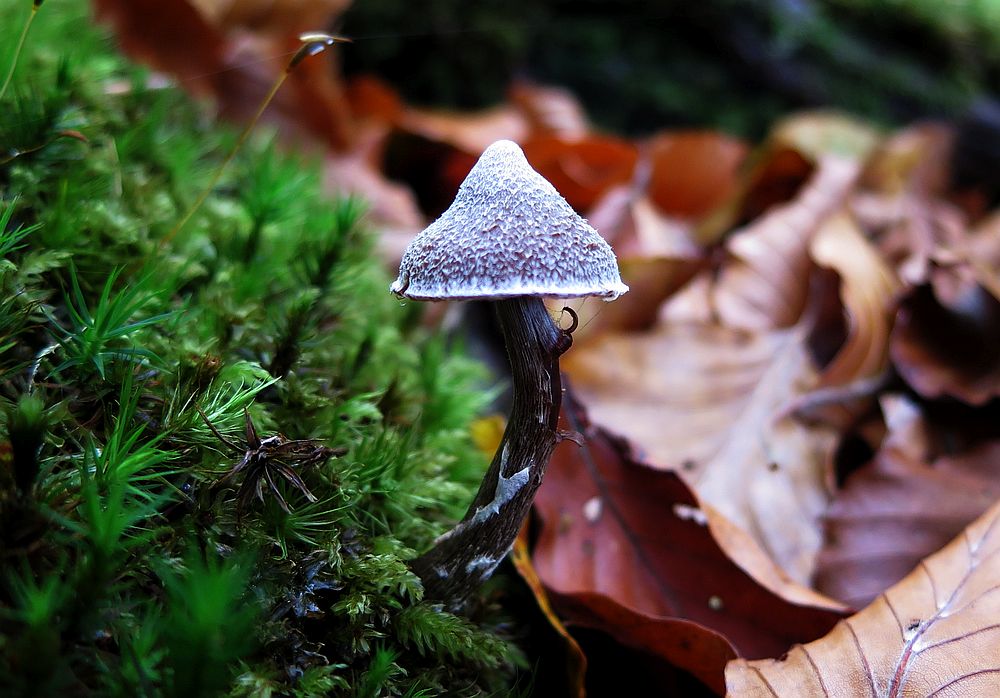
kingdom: Fungi
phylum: Basidiomycota
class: Agaricomycetes
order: Agaricales
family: Cortinariaceae
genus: Cortinarius
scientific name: Cortinarius flexipes
